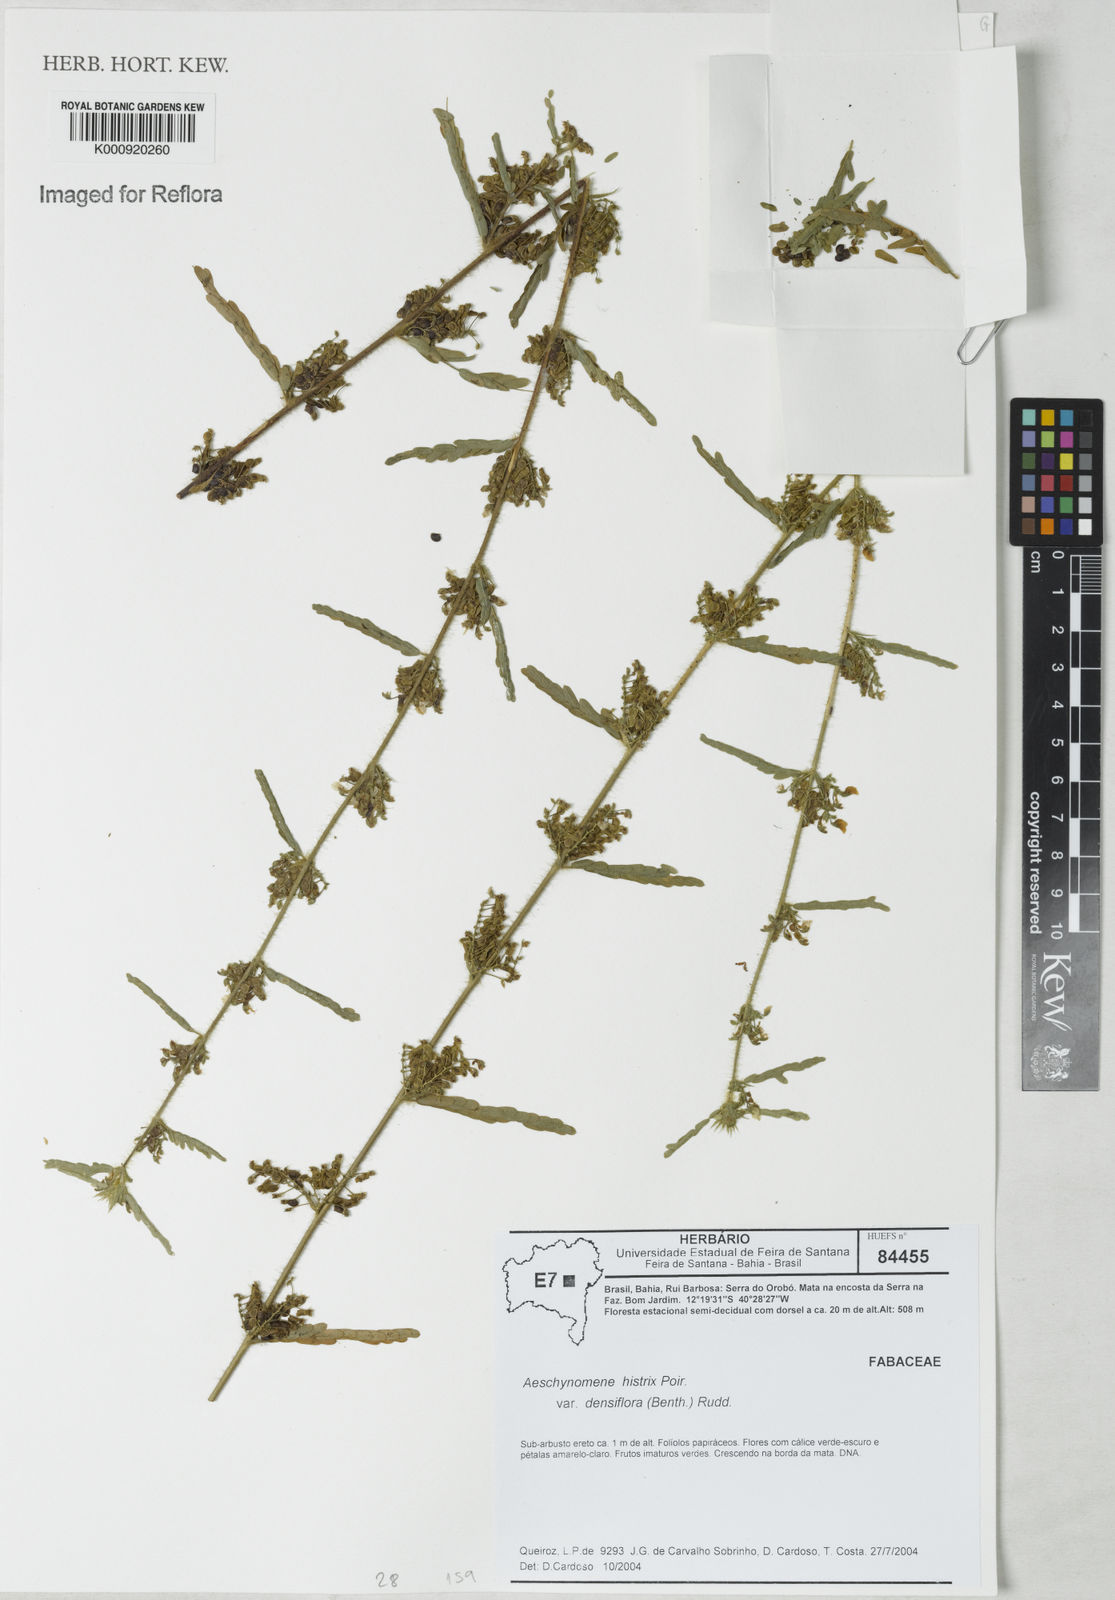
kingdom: Plantae
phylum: Tracheophyta
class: Magnoliopsida
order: Fabales
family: Fabaceae
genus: Ctenodon
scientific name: Ctenodon histrix
